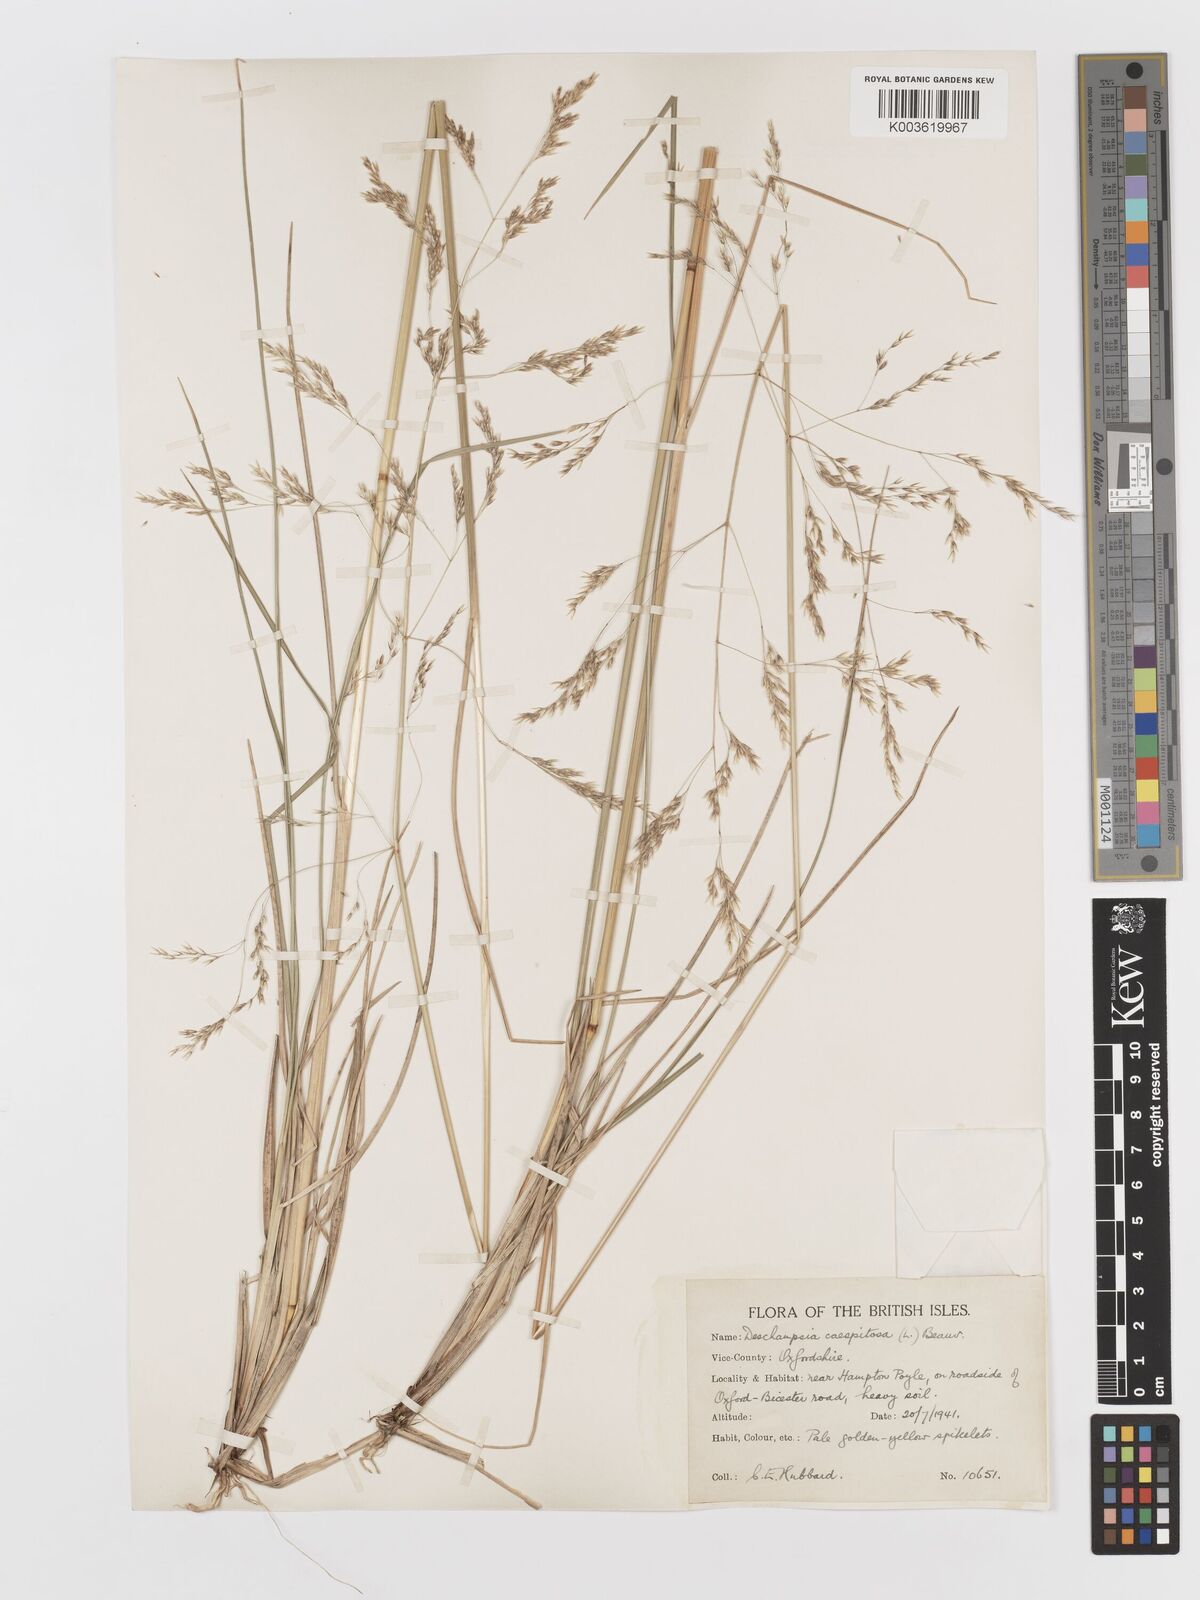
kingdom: Plantae
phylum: Tracheophyta
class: Liliopsida
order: Poales
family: Poaceae
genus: Deschampsia
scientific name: Deschampsia cespitosa
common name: Tufted hair-grass
